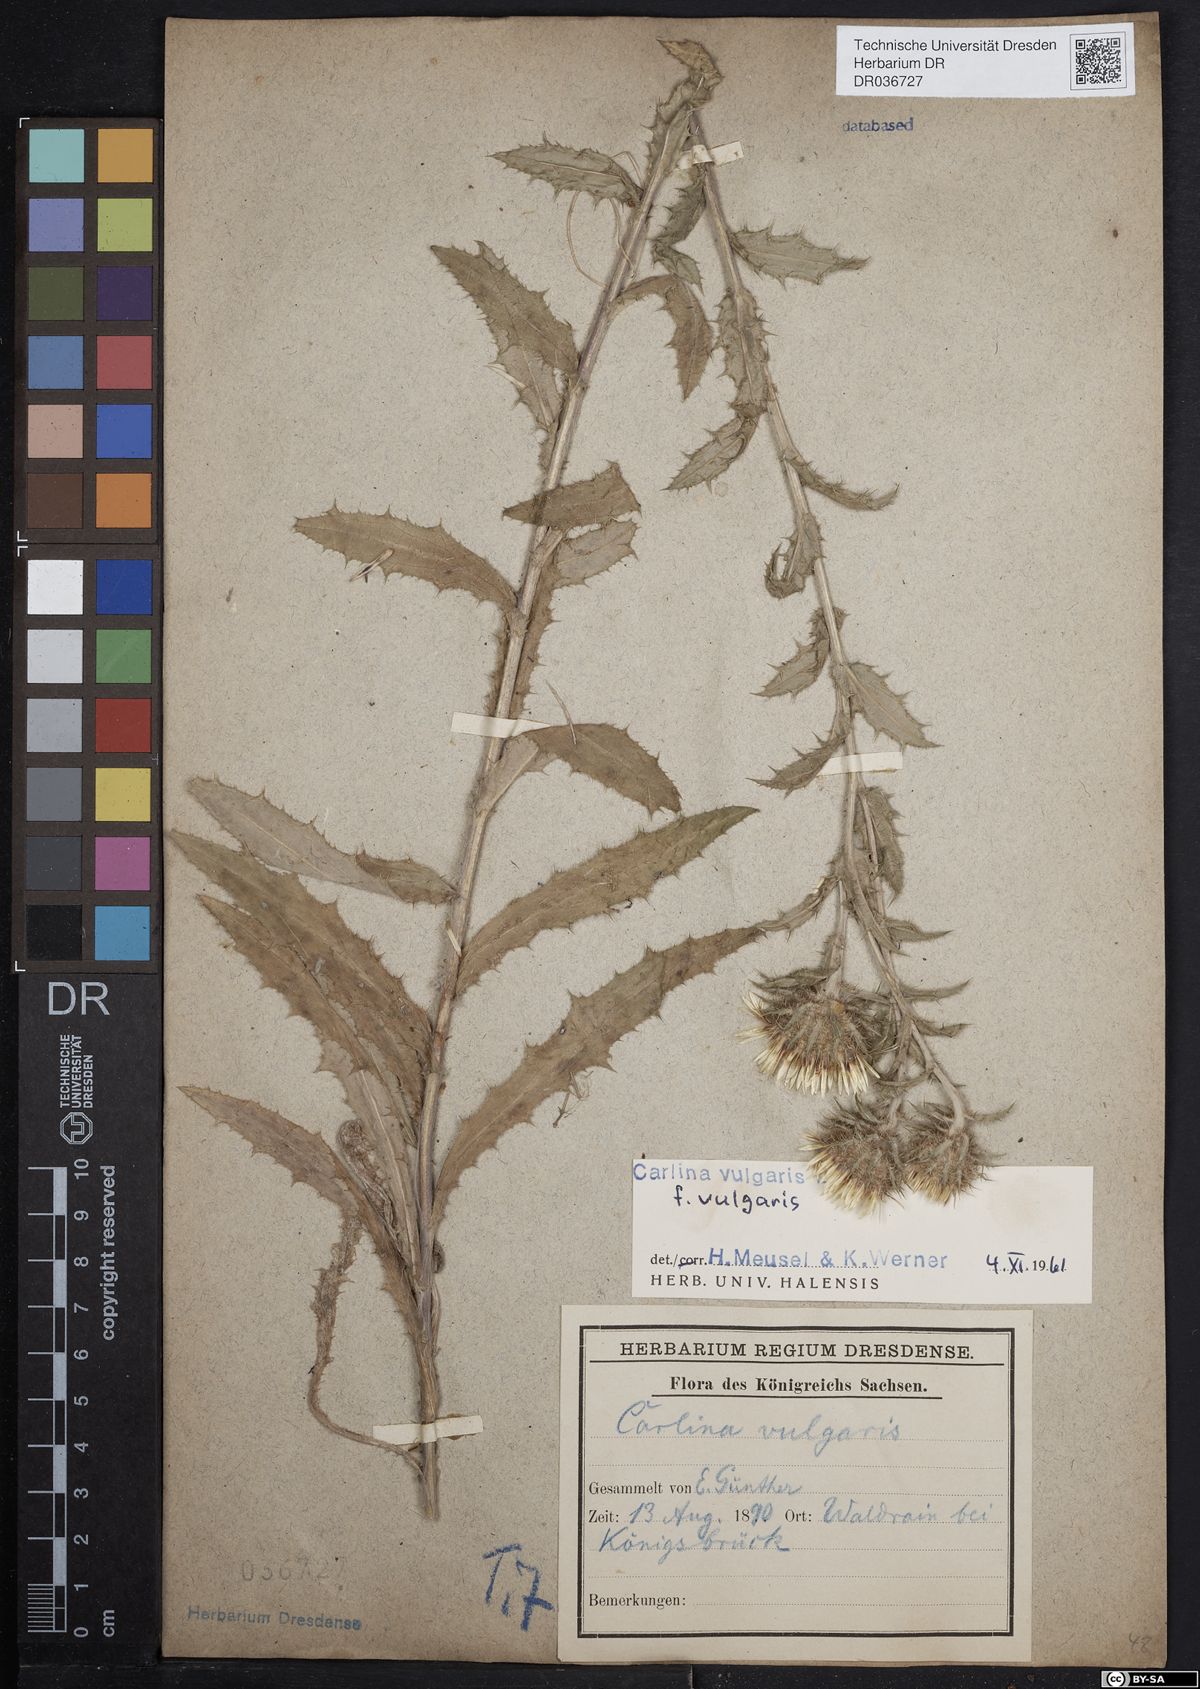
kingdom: Plantae
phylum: Tracheophyta
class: Magnoliopsida
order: Asterales
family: Asteraceae
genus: Carlina
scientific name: Carlina vulgaris
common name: Carline thistle
